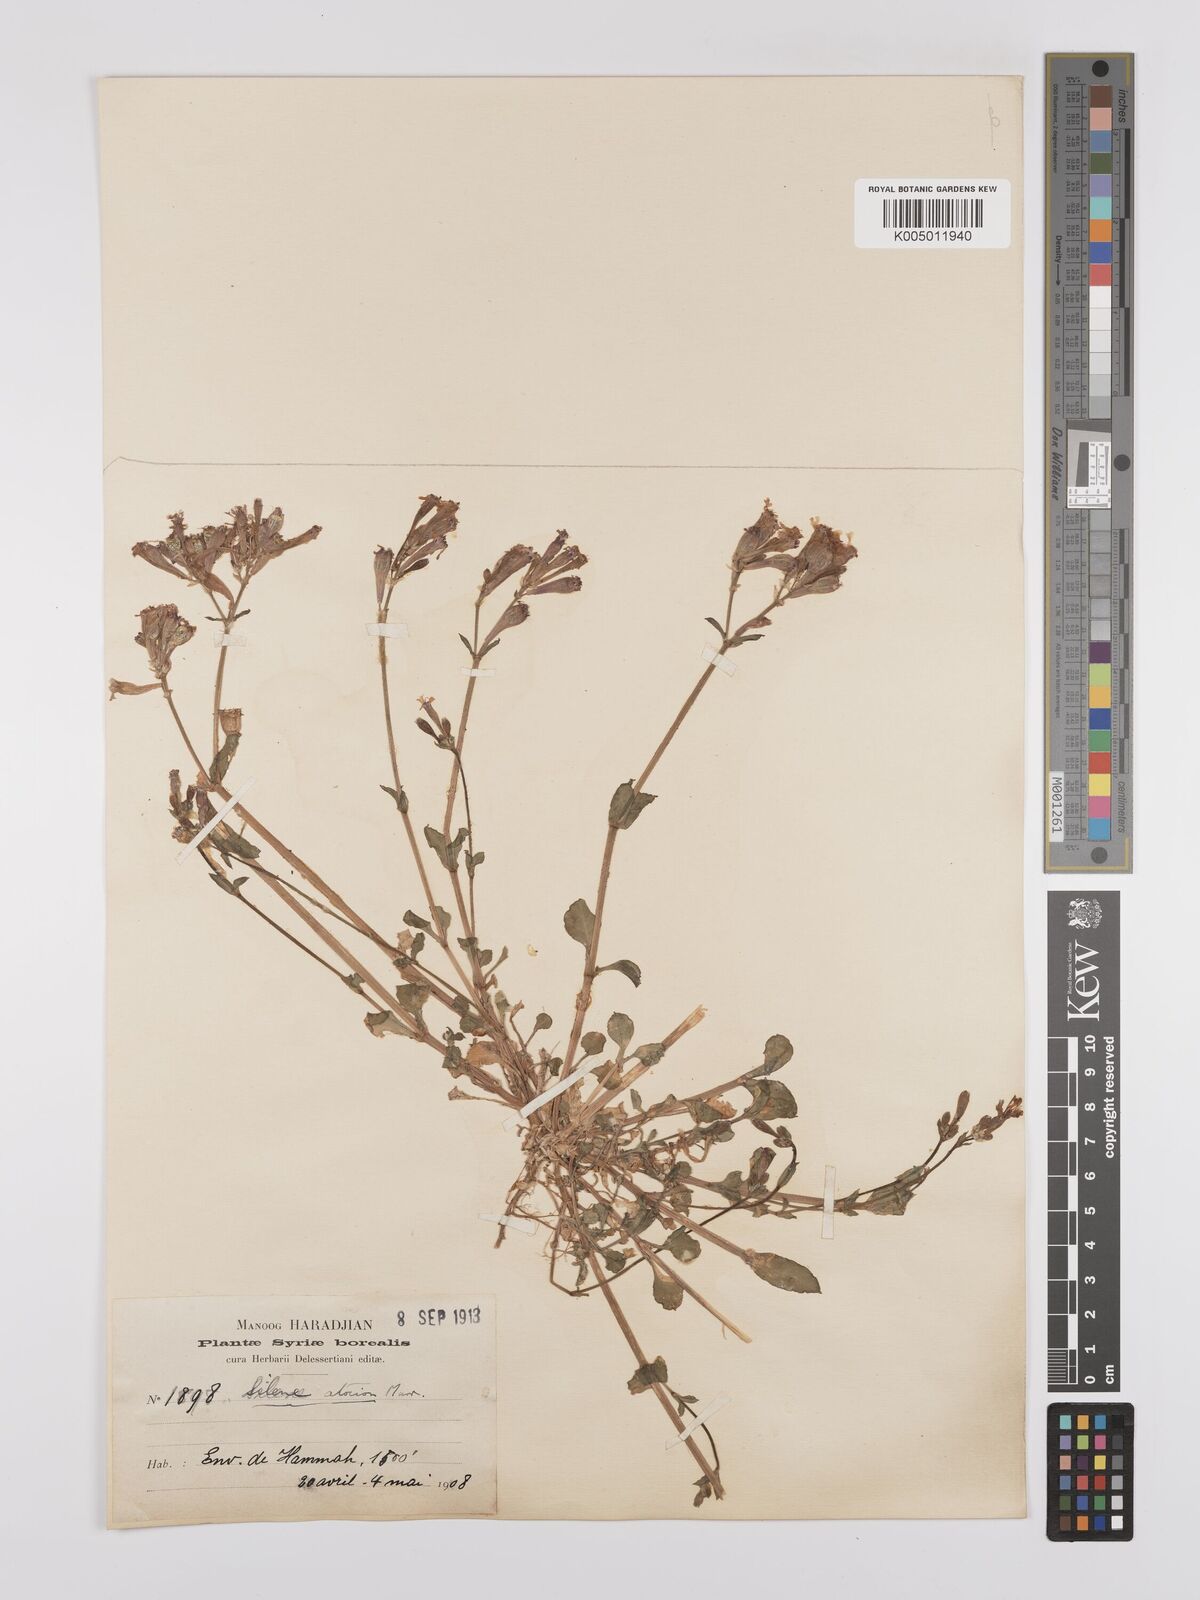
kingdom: Plantae
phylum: Tracheophyta
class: Magnoliopsida
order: Caryophyllales
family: Caryophyllaceae
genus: Silene
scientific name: Silene aegyptiaca
